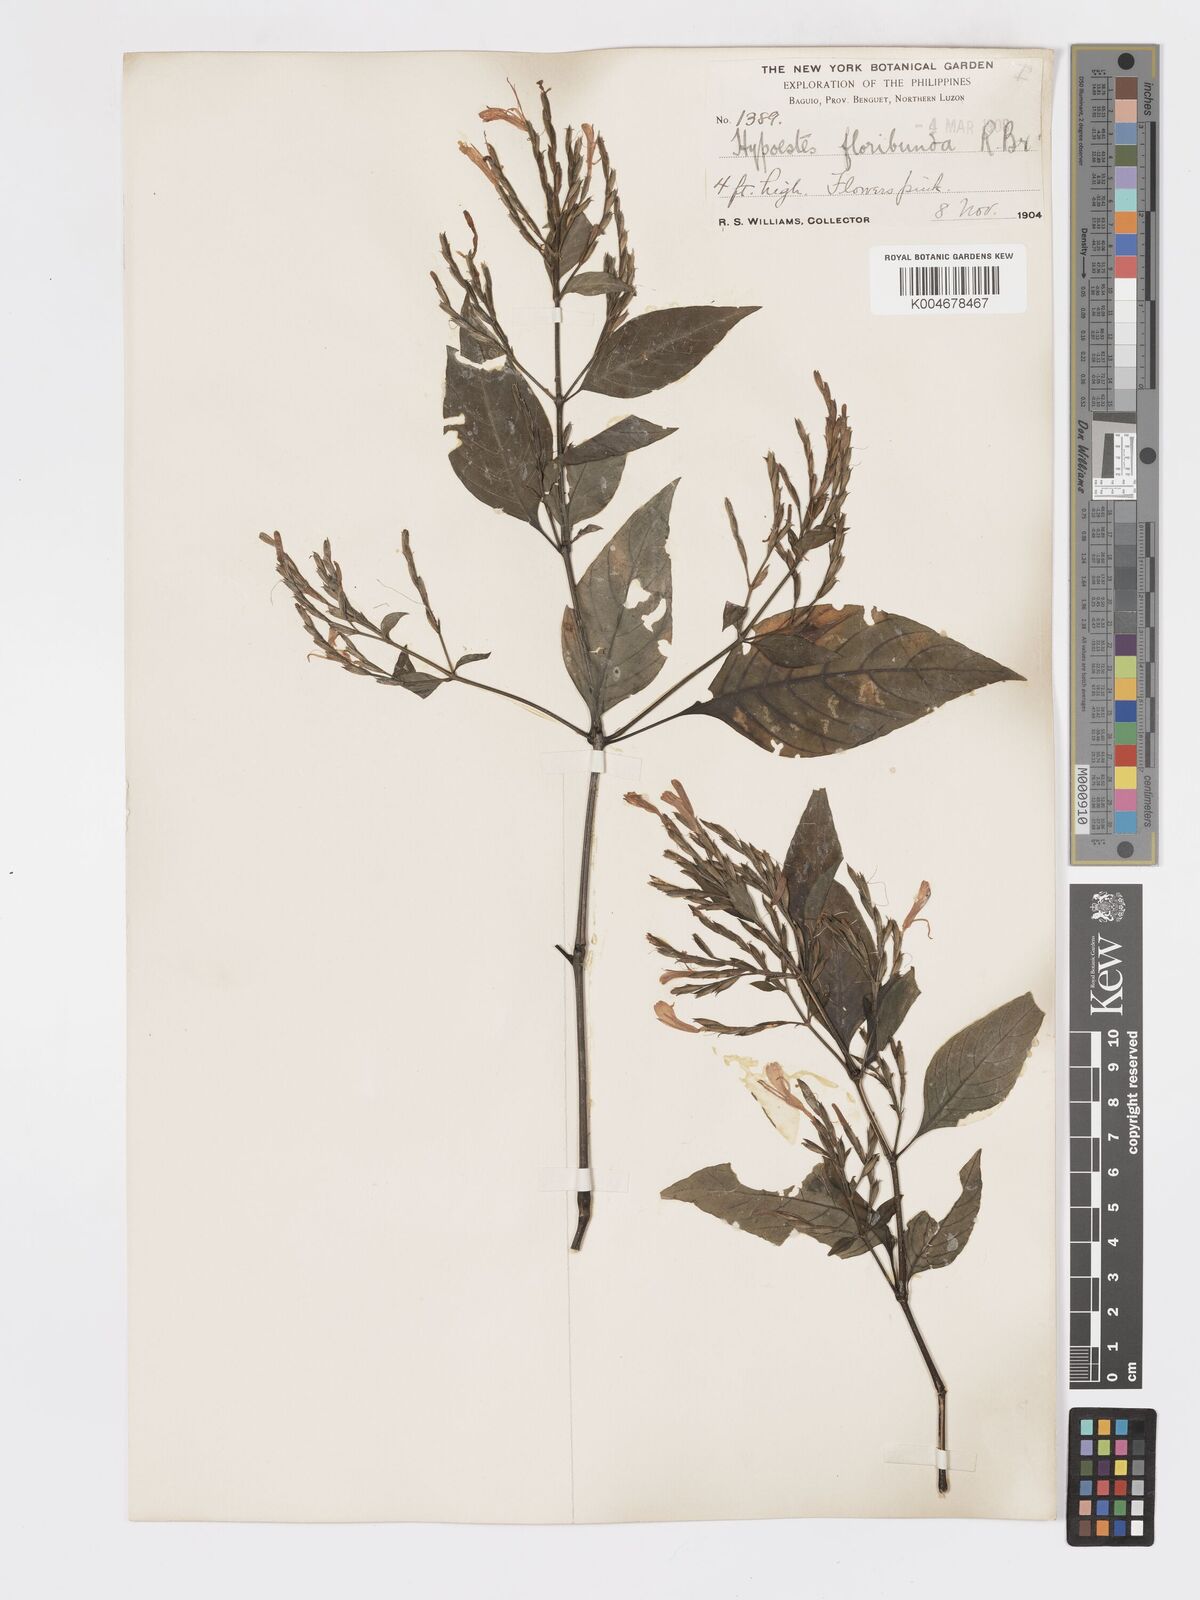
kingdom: Plantae
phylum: Tracheophyta
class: Magnoliopsida
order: Lamiales
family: Acanthaceae
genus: Hypoestes
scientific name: Hypoestes floribunda
